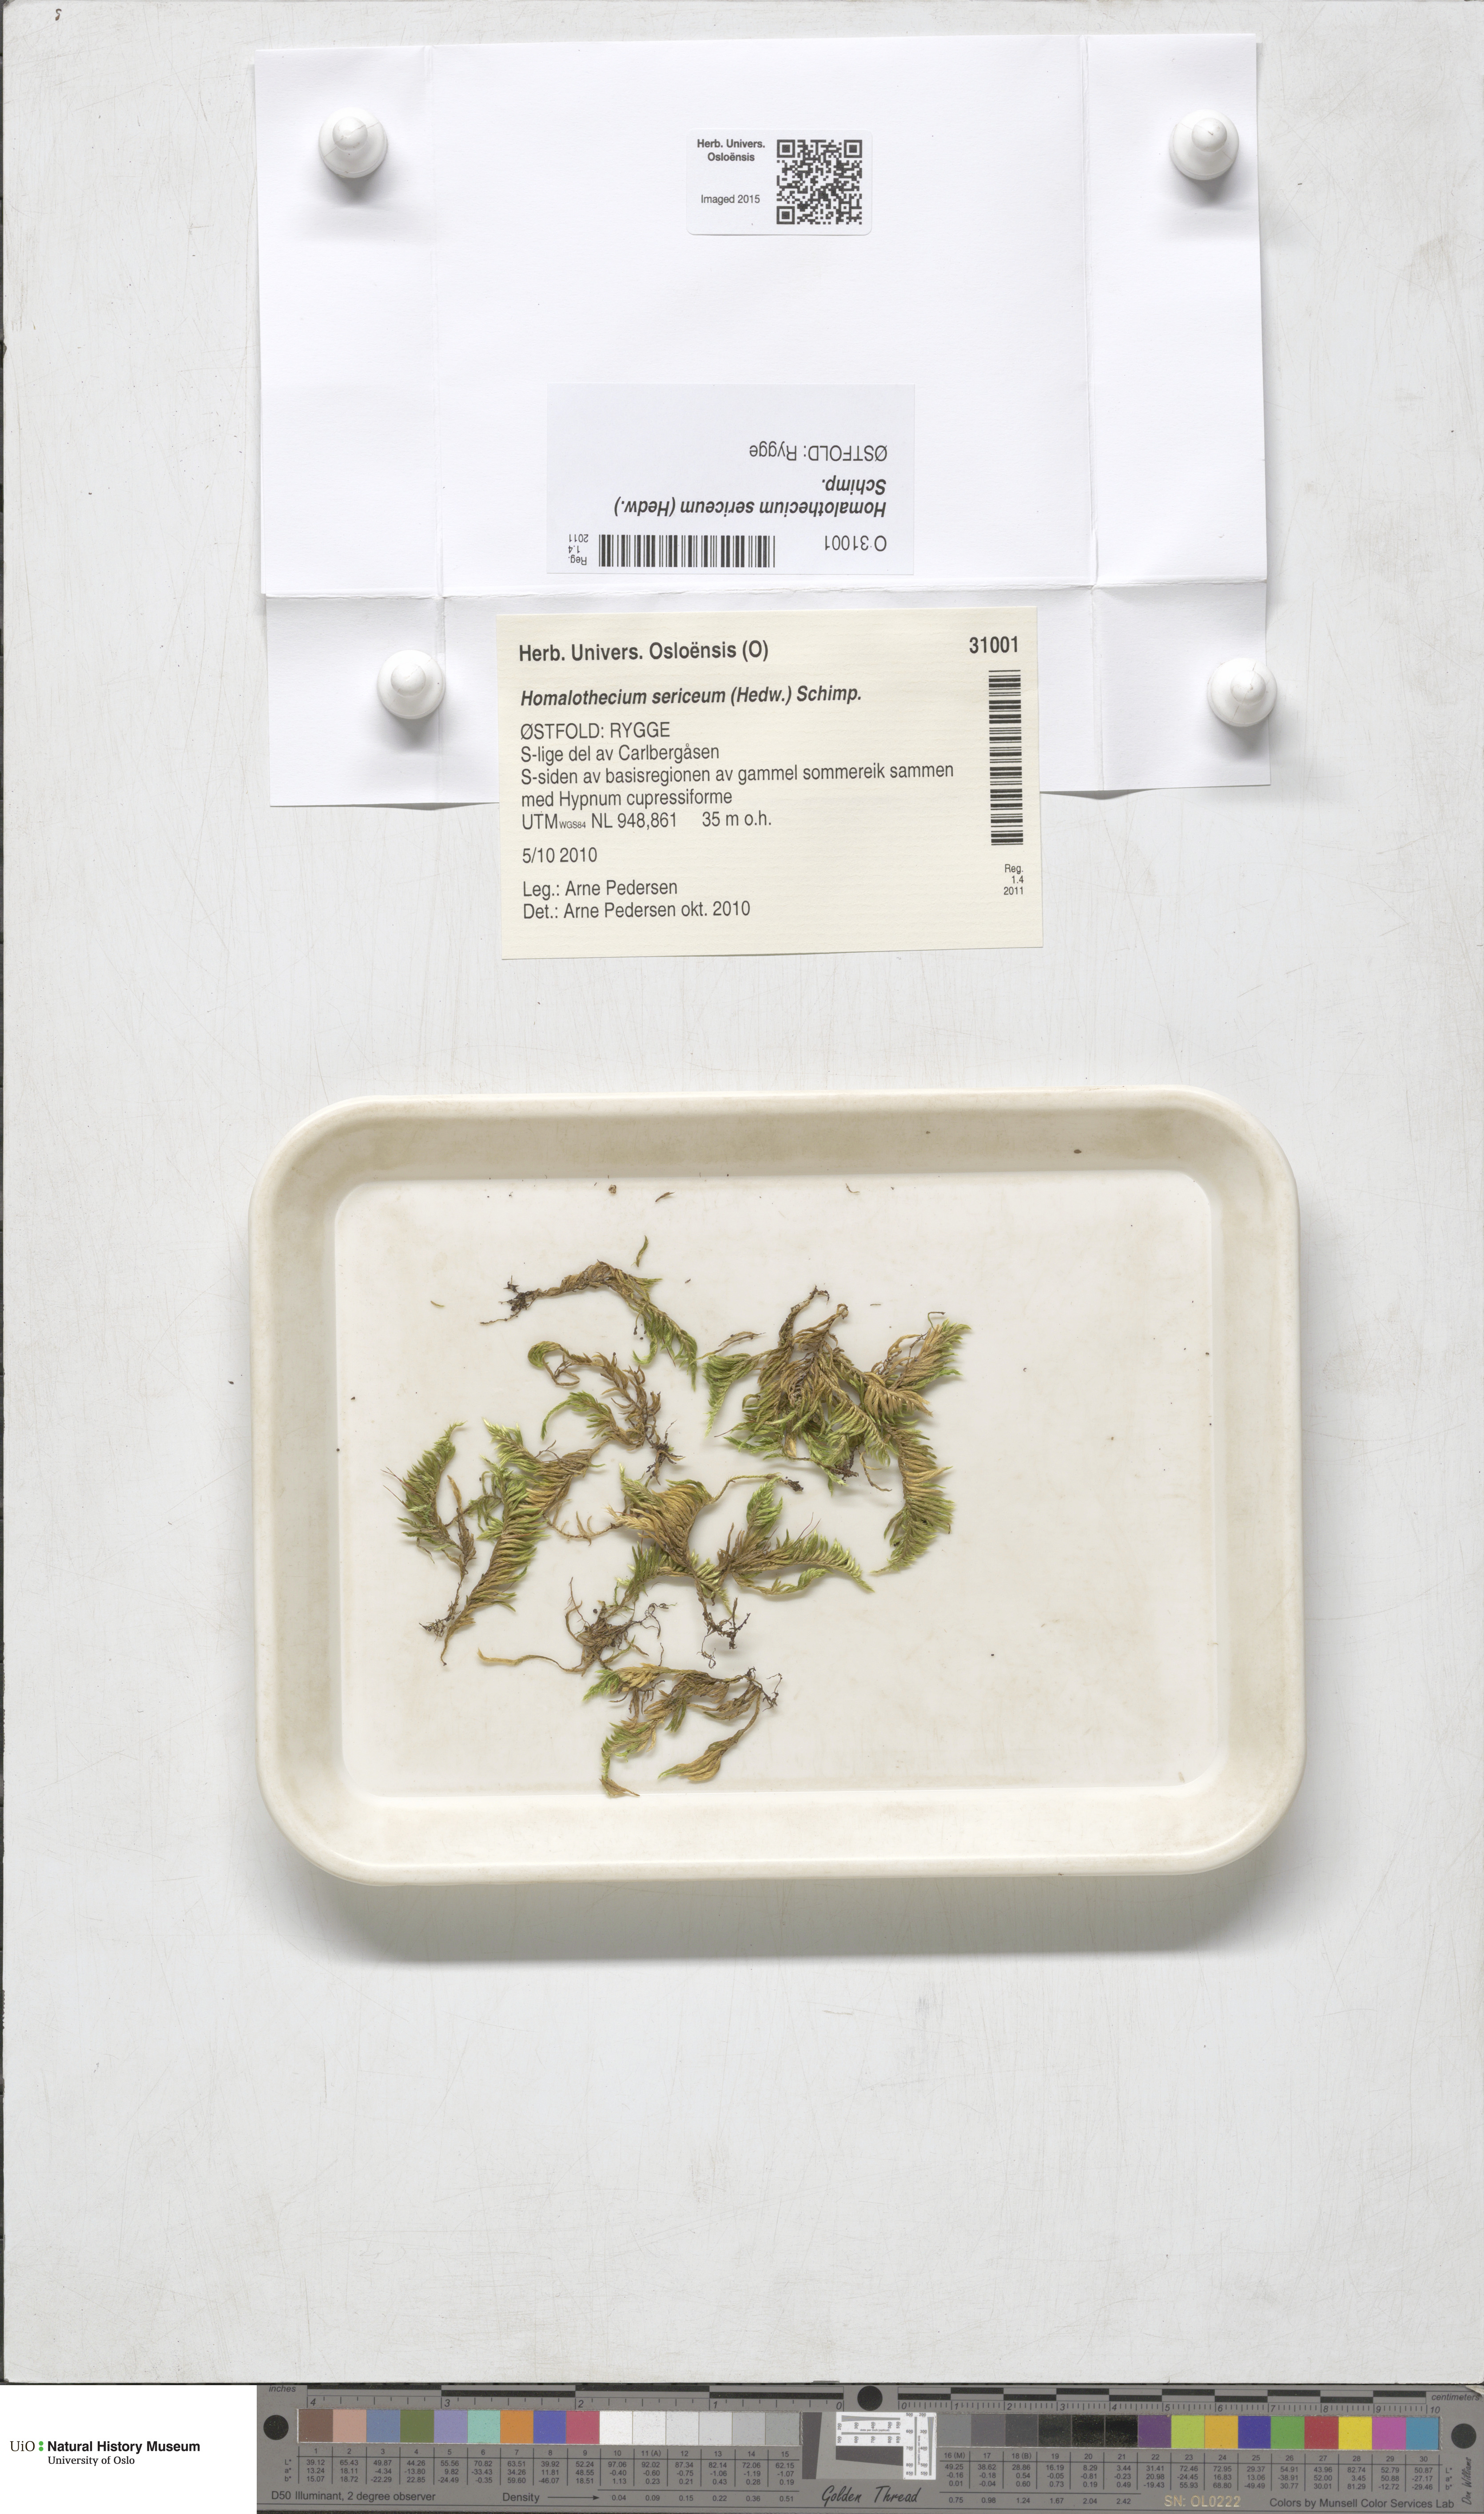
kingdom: Plantae
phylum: Bryophyta
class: Bryopsida
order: Hypnales
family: Brachytheciaceae
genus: Homalothecium
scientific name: Homalothecium sericeum
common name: Silky wall feather-moss
